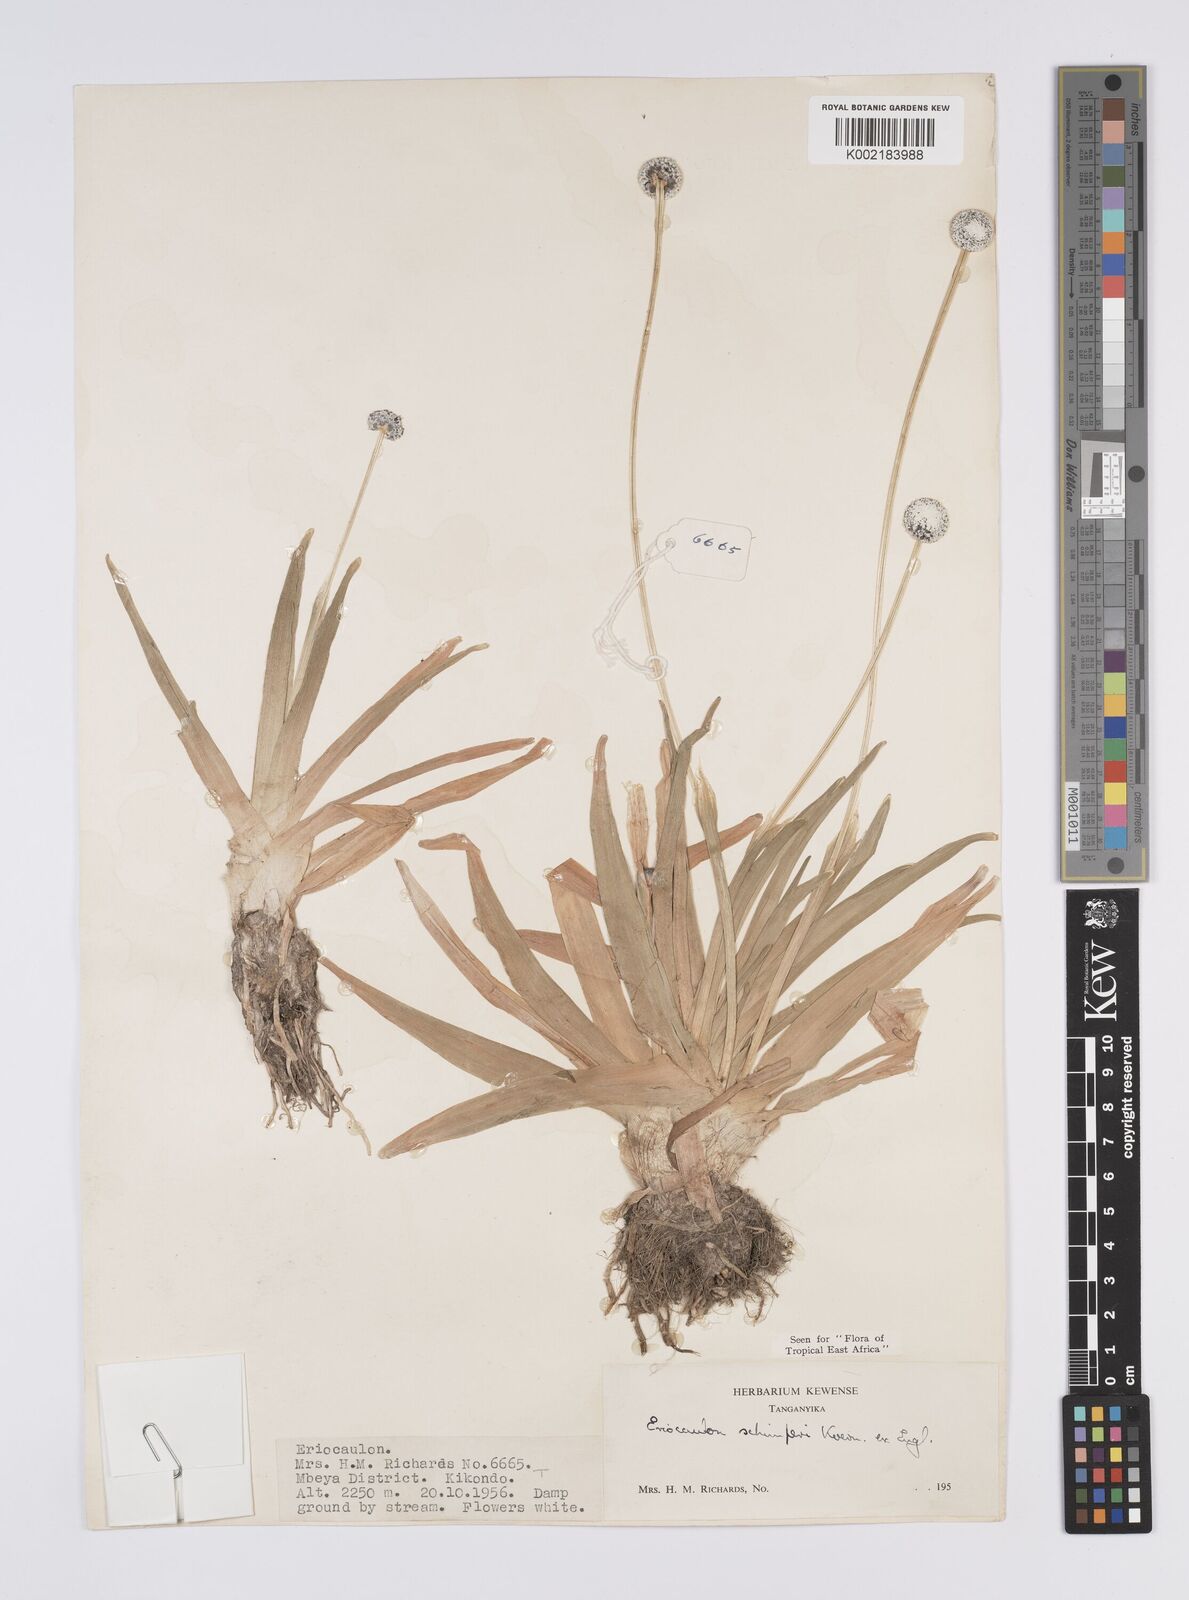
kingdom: Plantae
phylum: Tracheophyta
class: Liliopsida
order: Poales
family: Eriocaulaceae
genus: Eriocaulon
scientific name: Eriocaulon schimperi
